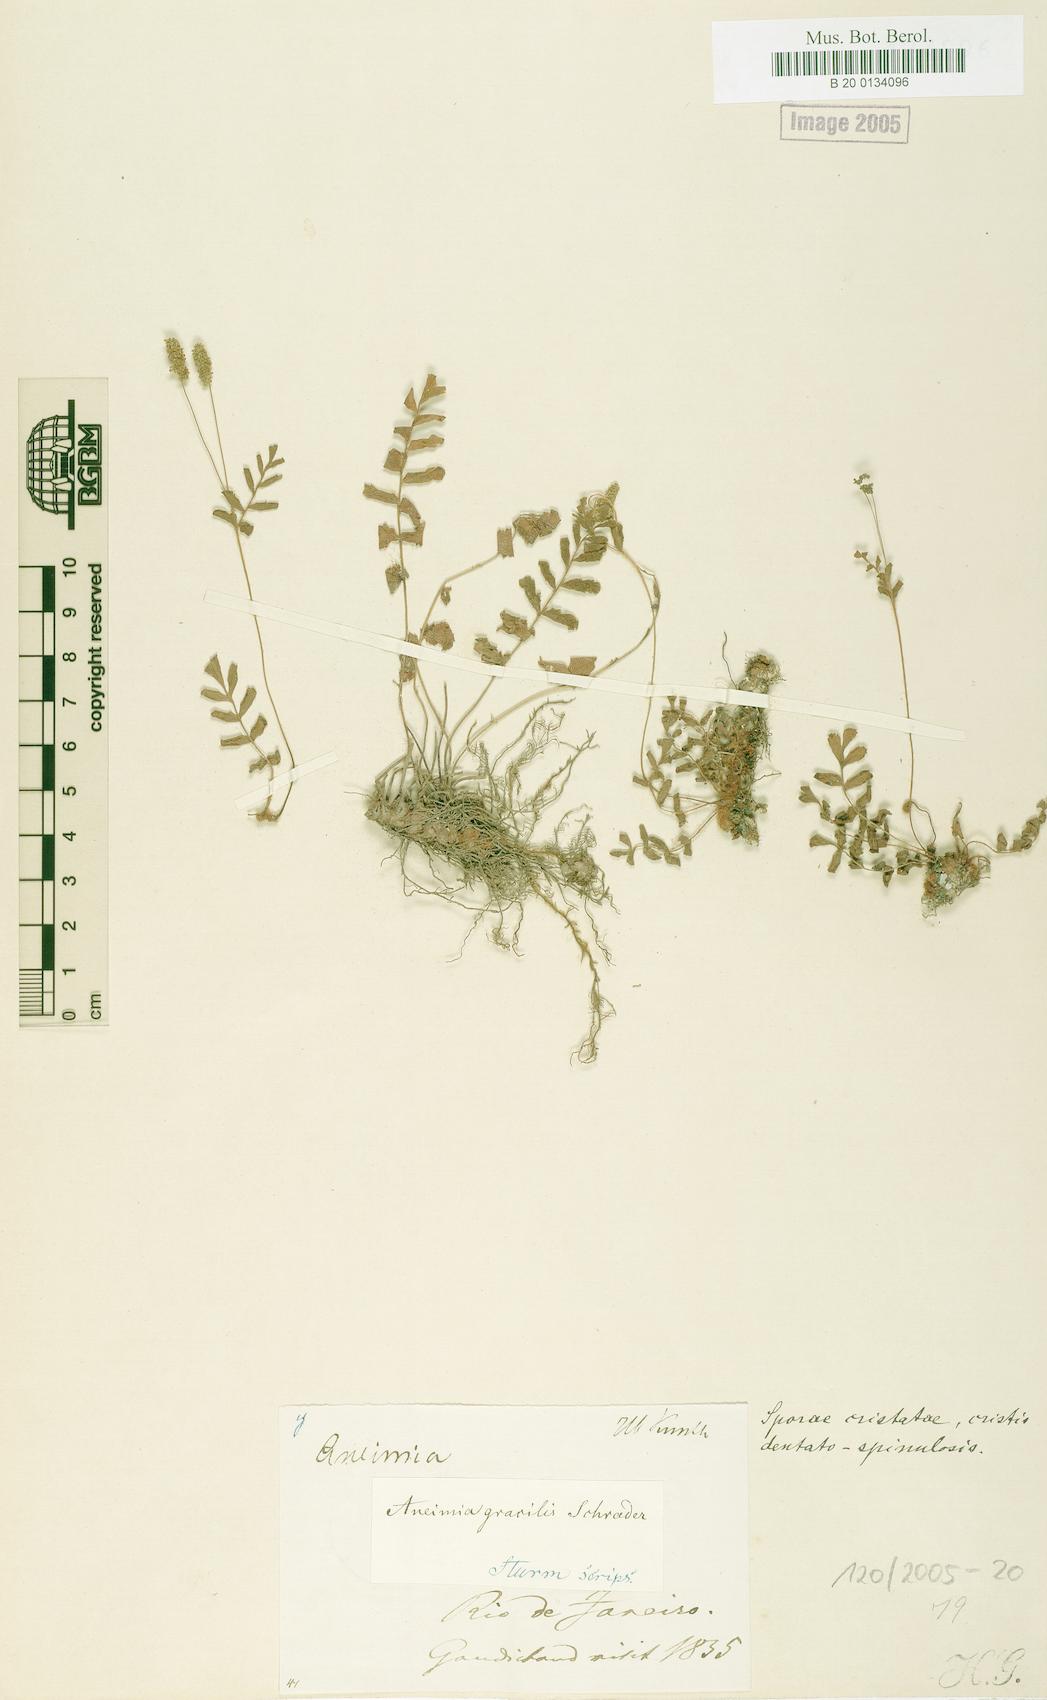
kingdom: Plantae
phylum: Tracheophyta
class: Polypodiopsida
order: Schizaeales
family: Anemiaceae
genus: Anemia
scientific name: Anemia repens
